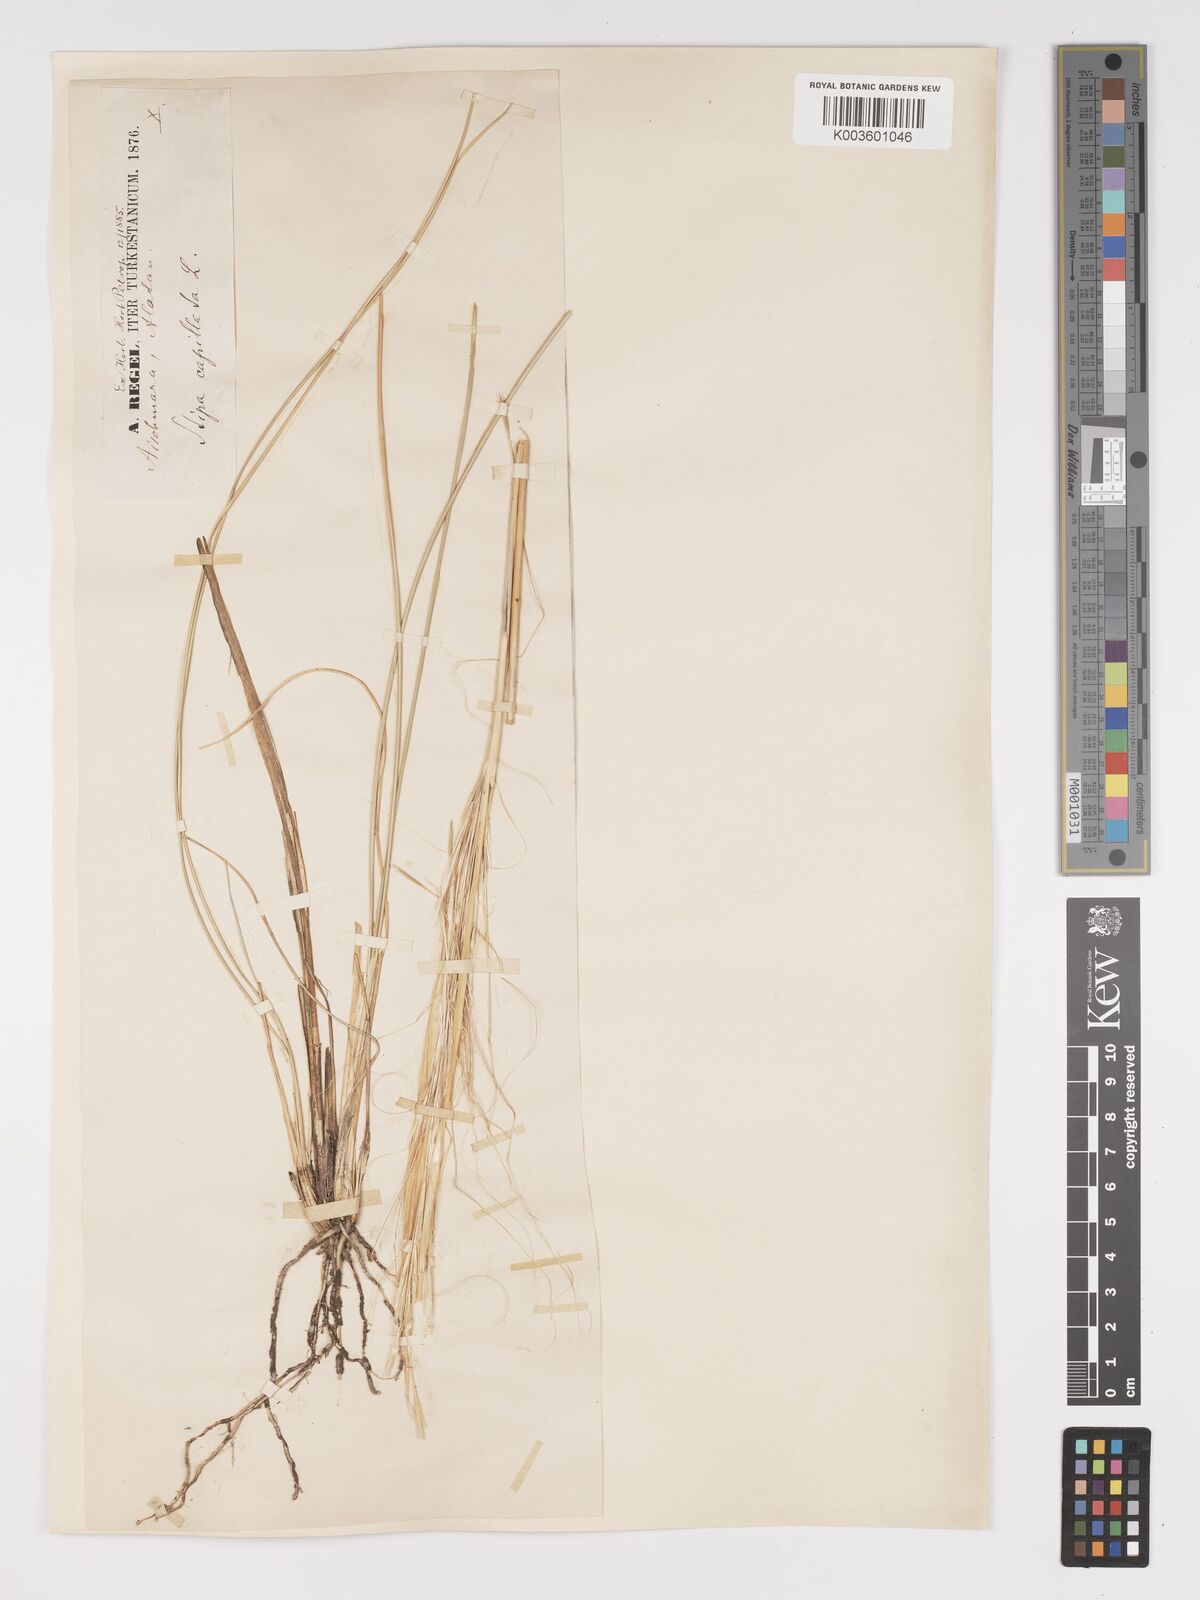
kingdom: Plantae
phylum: Tracheophyta
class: Liliopsida
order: Poales
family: Poaceae
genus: Stipa
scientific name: Stipa capillata
